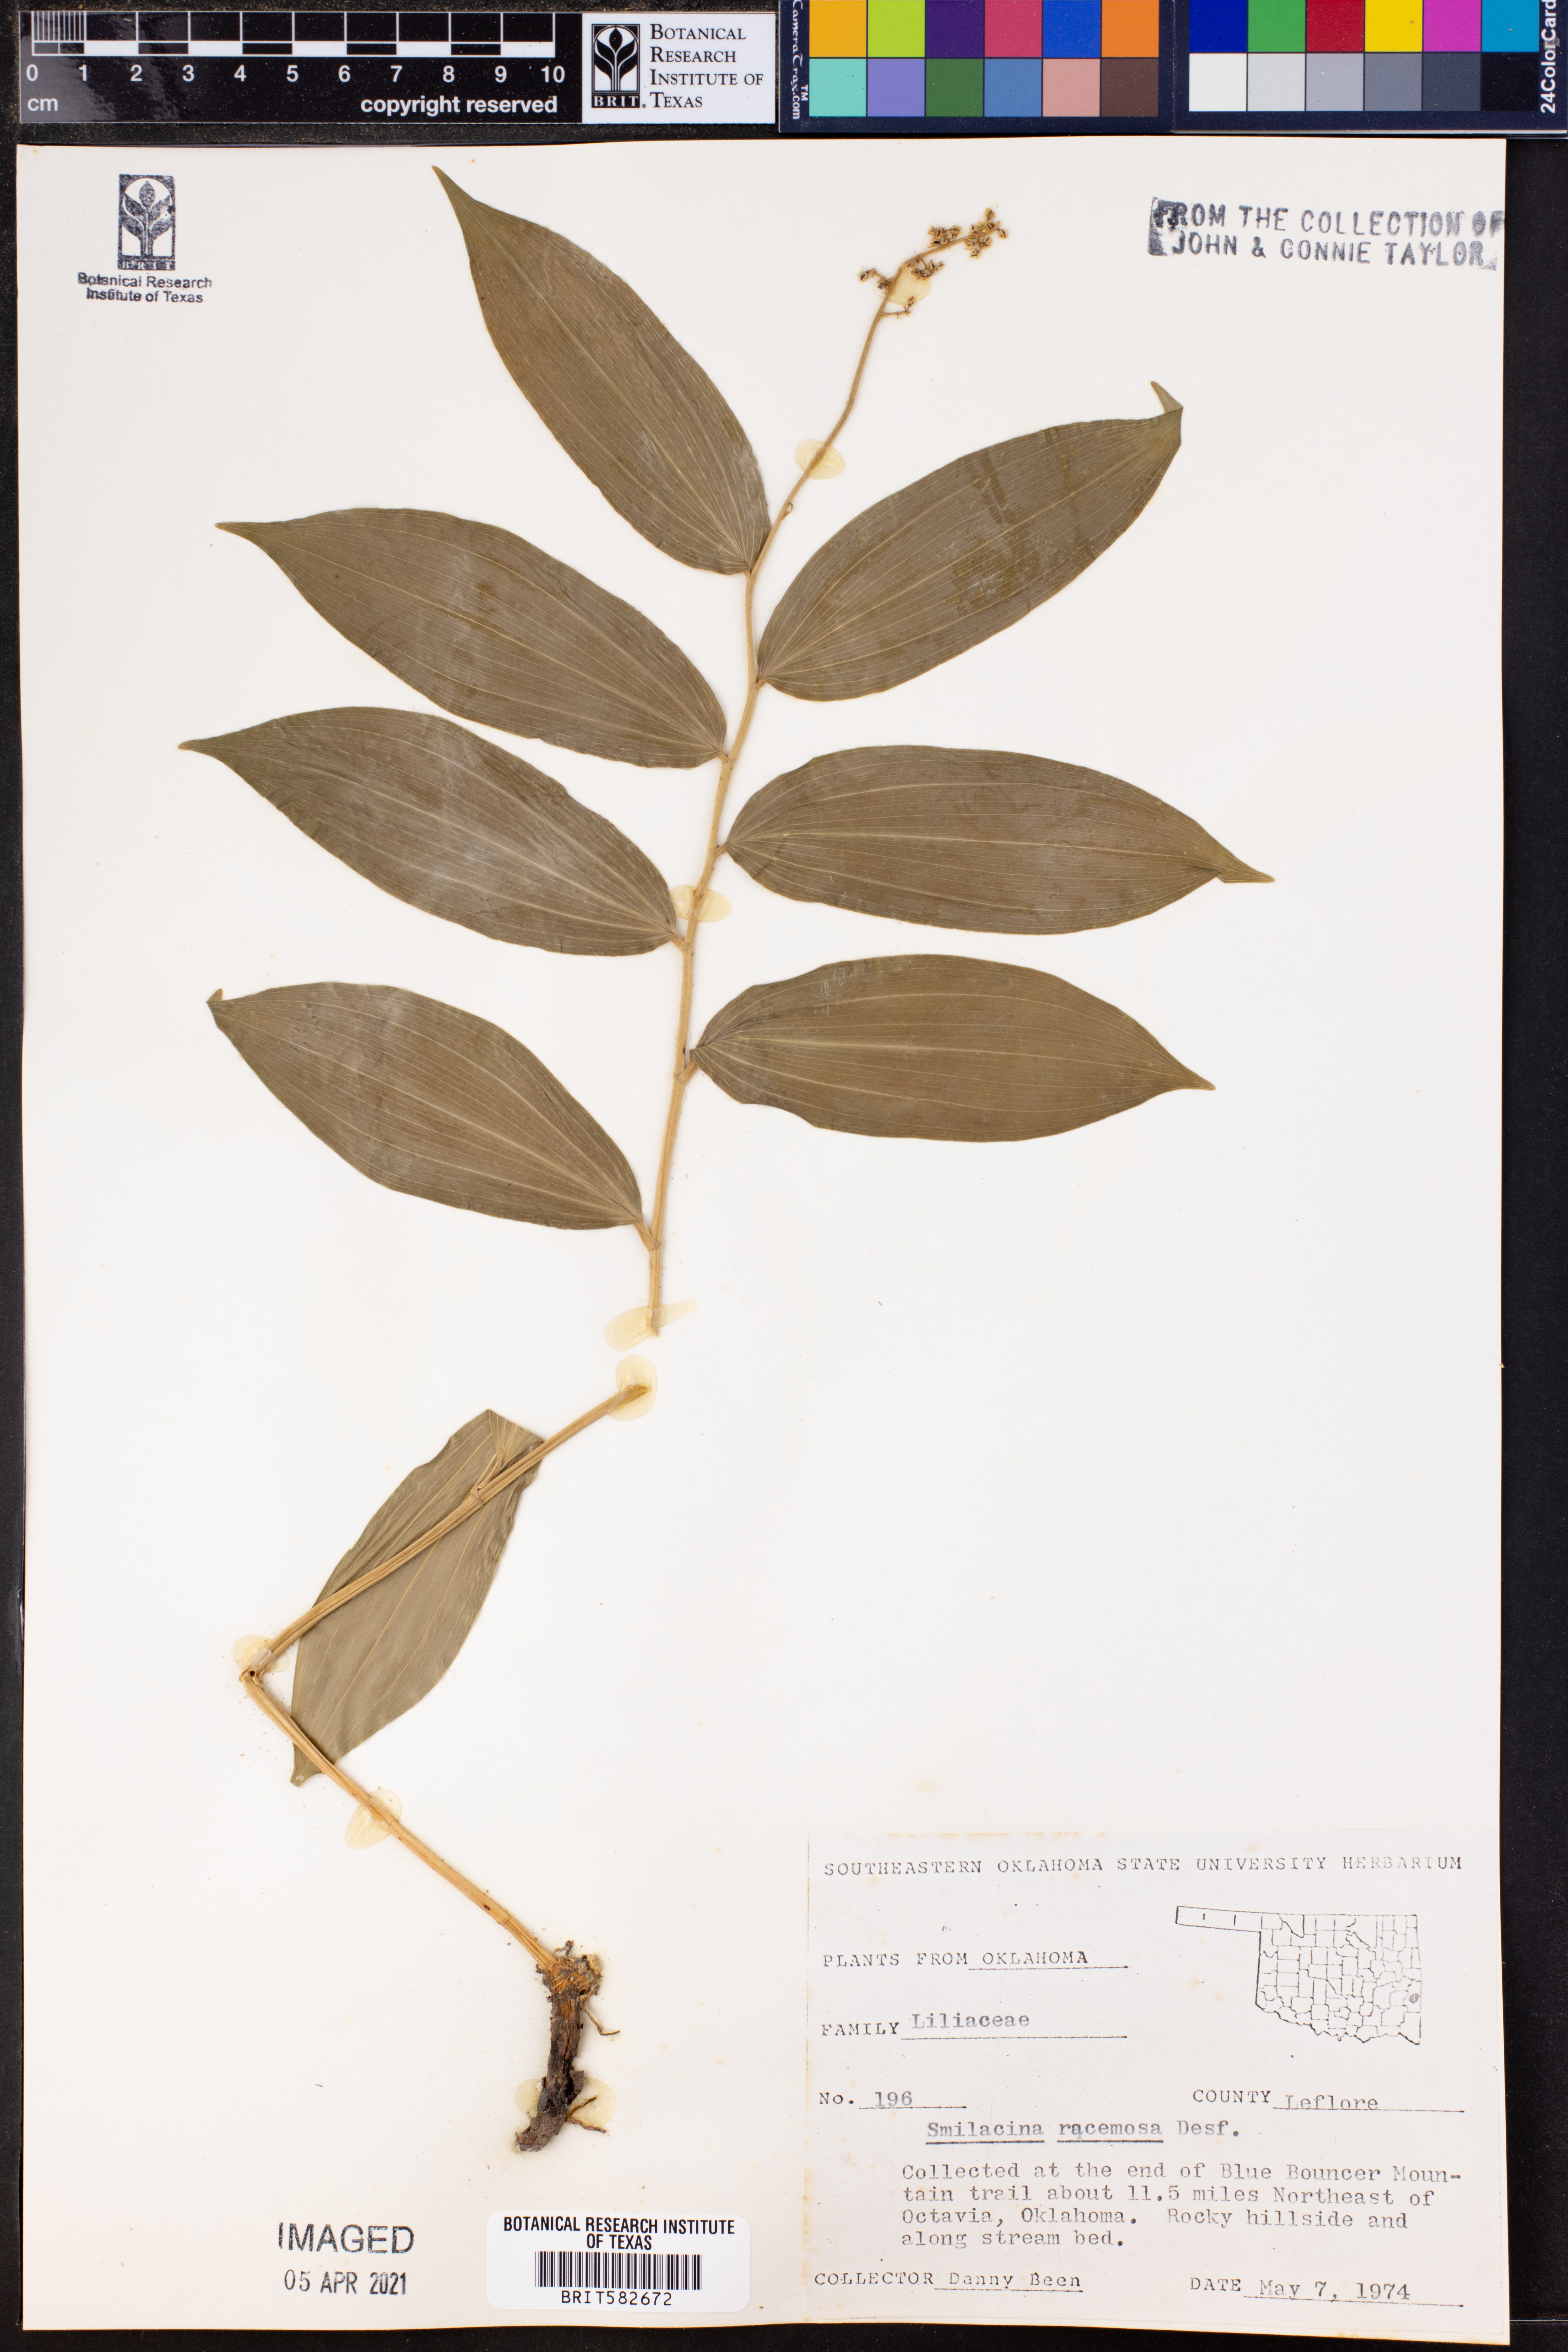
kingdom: Plantae
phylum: Tracheophyta
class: Liliopsida
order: Asparagales
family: Asparagaceae
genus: Maianthemum
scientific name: Maianthemum racemosum
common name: False spikenard
